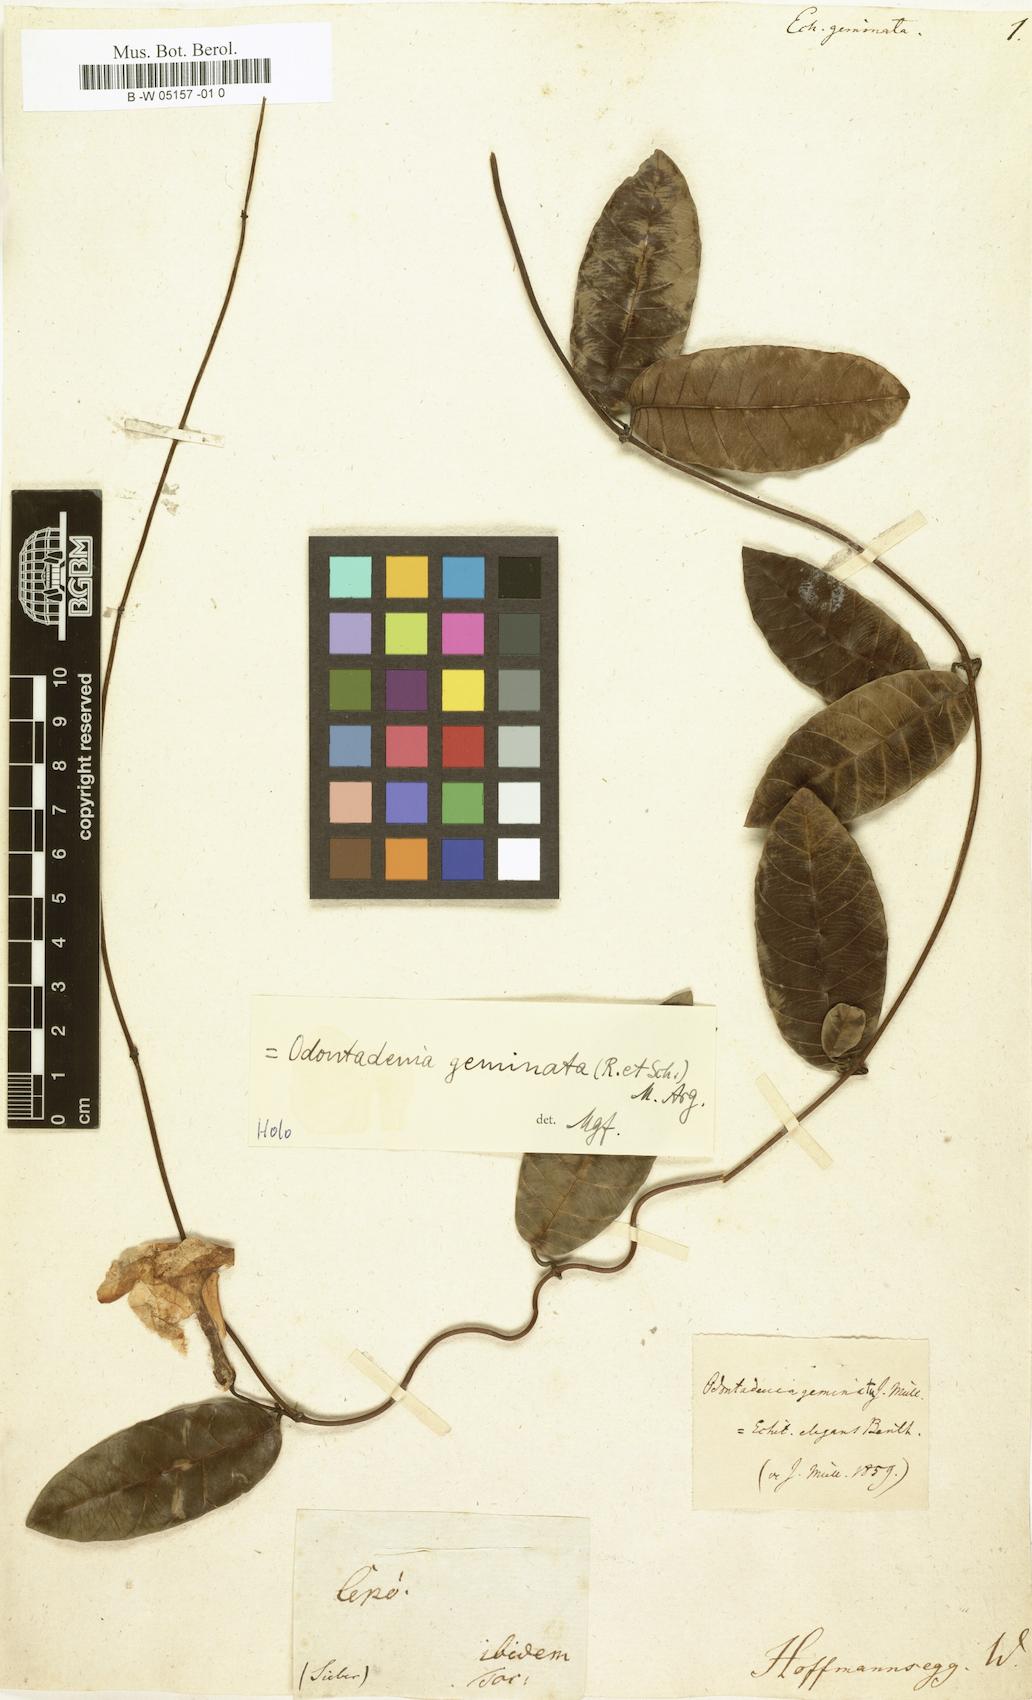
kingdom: Plantae
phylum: Tracheophyta
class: Magnoliopsida
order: Gentianales
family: Apocynaceae
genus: Odontadenia
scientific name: Odontadenia geminata
